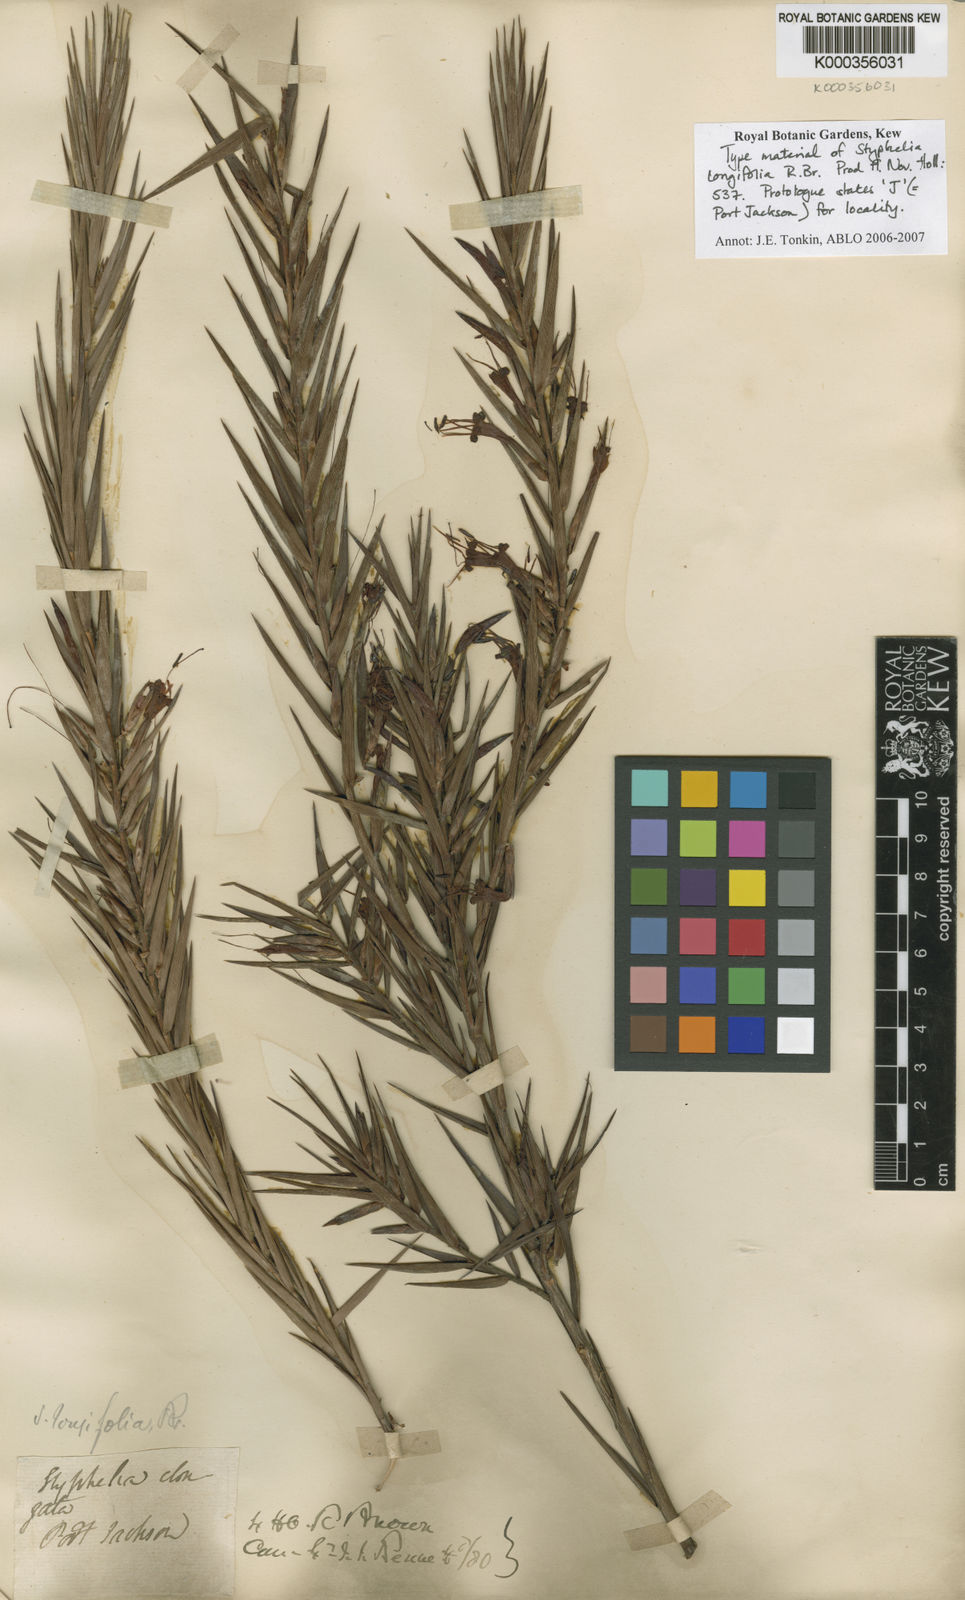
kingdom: Plantae
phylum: Tracheophyta
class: Magnoliopsida
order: Ericales
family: Ericaceae
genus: Styphelia
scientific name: Styphelia longifolia
